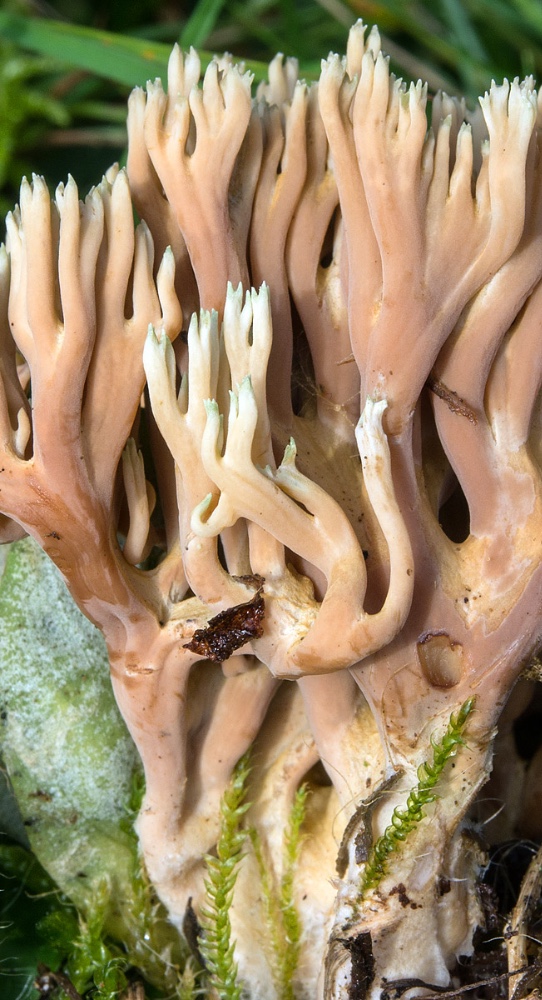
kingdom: Fungi
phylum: Basidiomycota
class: Agaricomycetes
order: Gomphales
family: Gomphaceae
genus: Ramaria
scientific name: Ramaria apiculata
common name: grøntoppet koralsvamp
